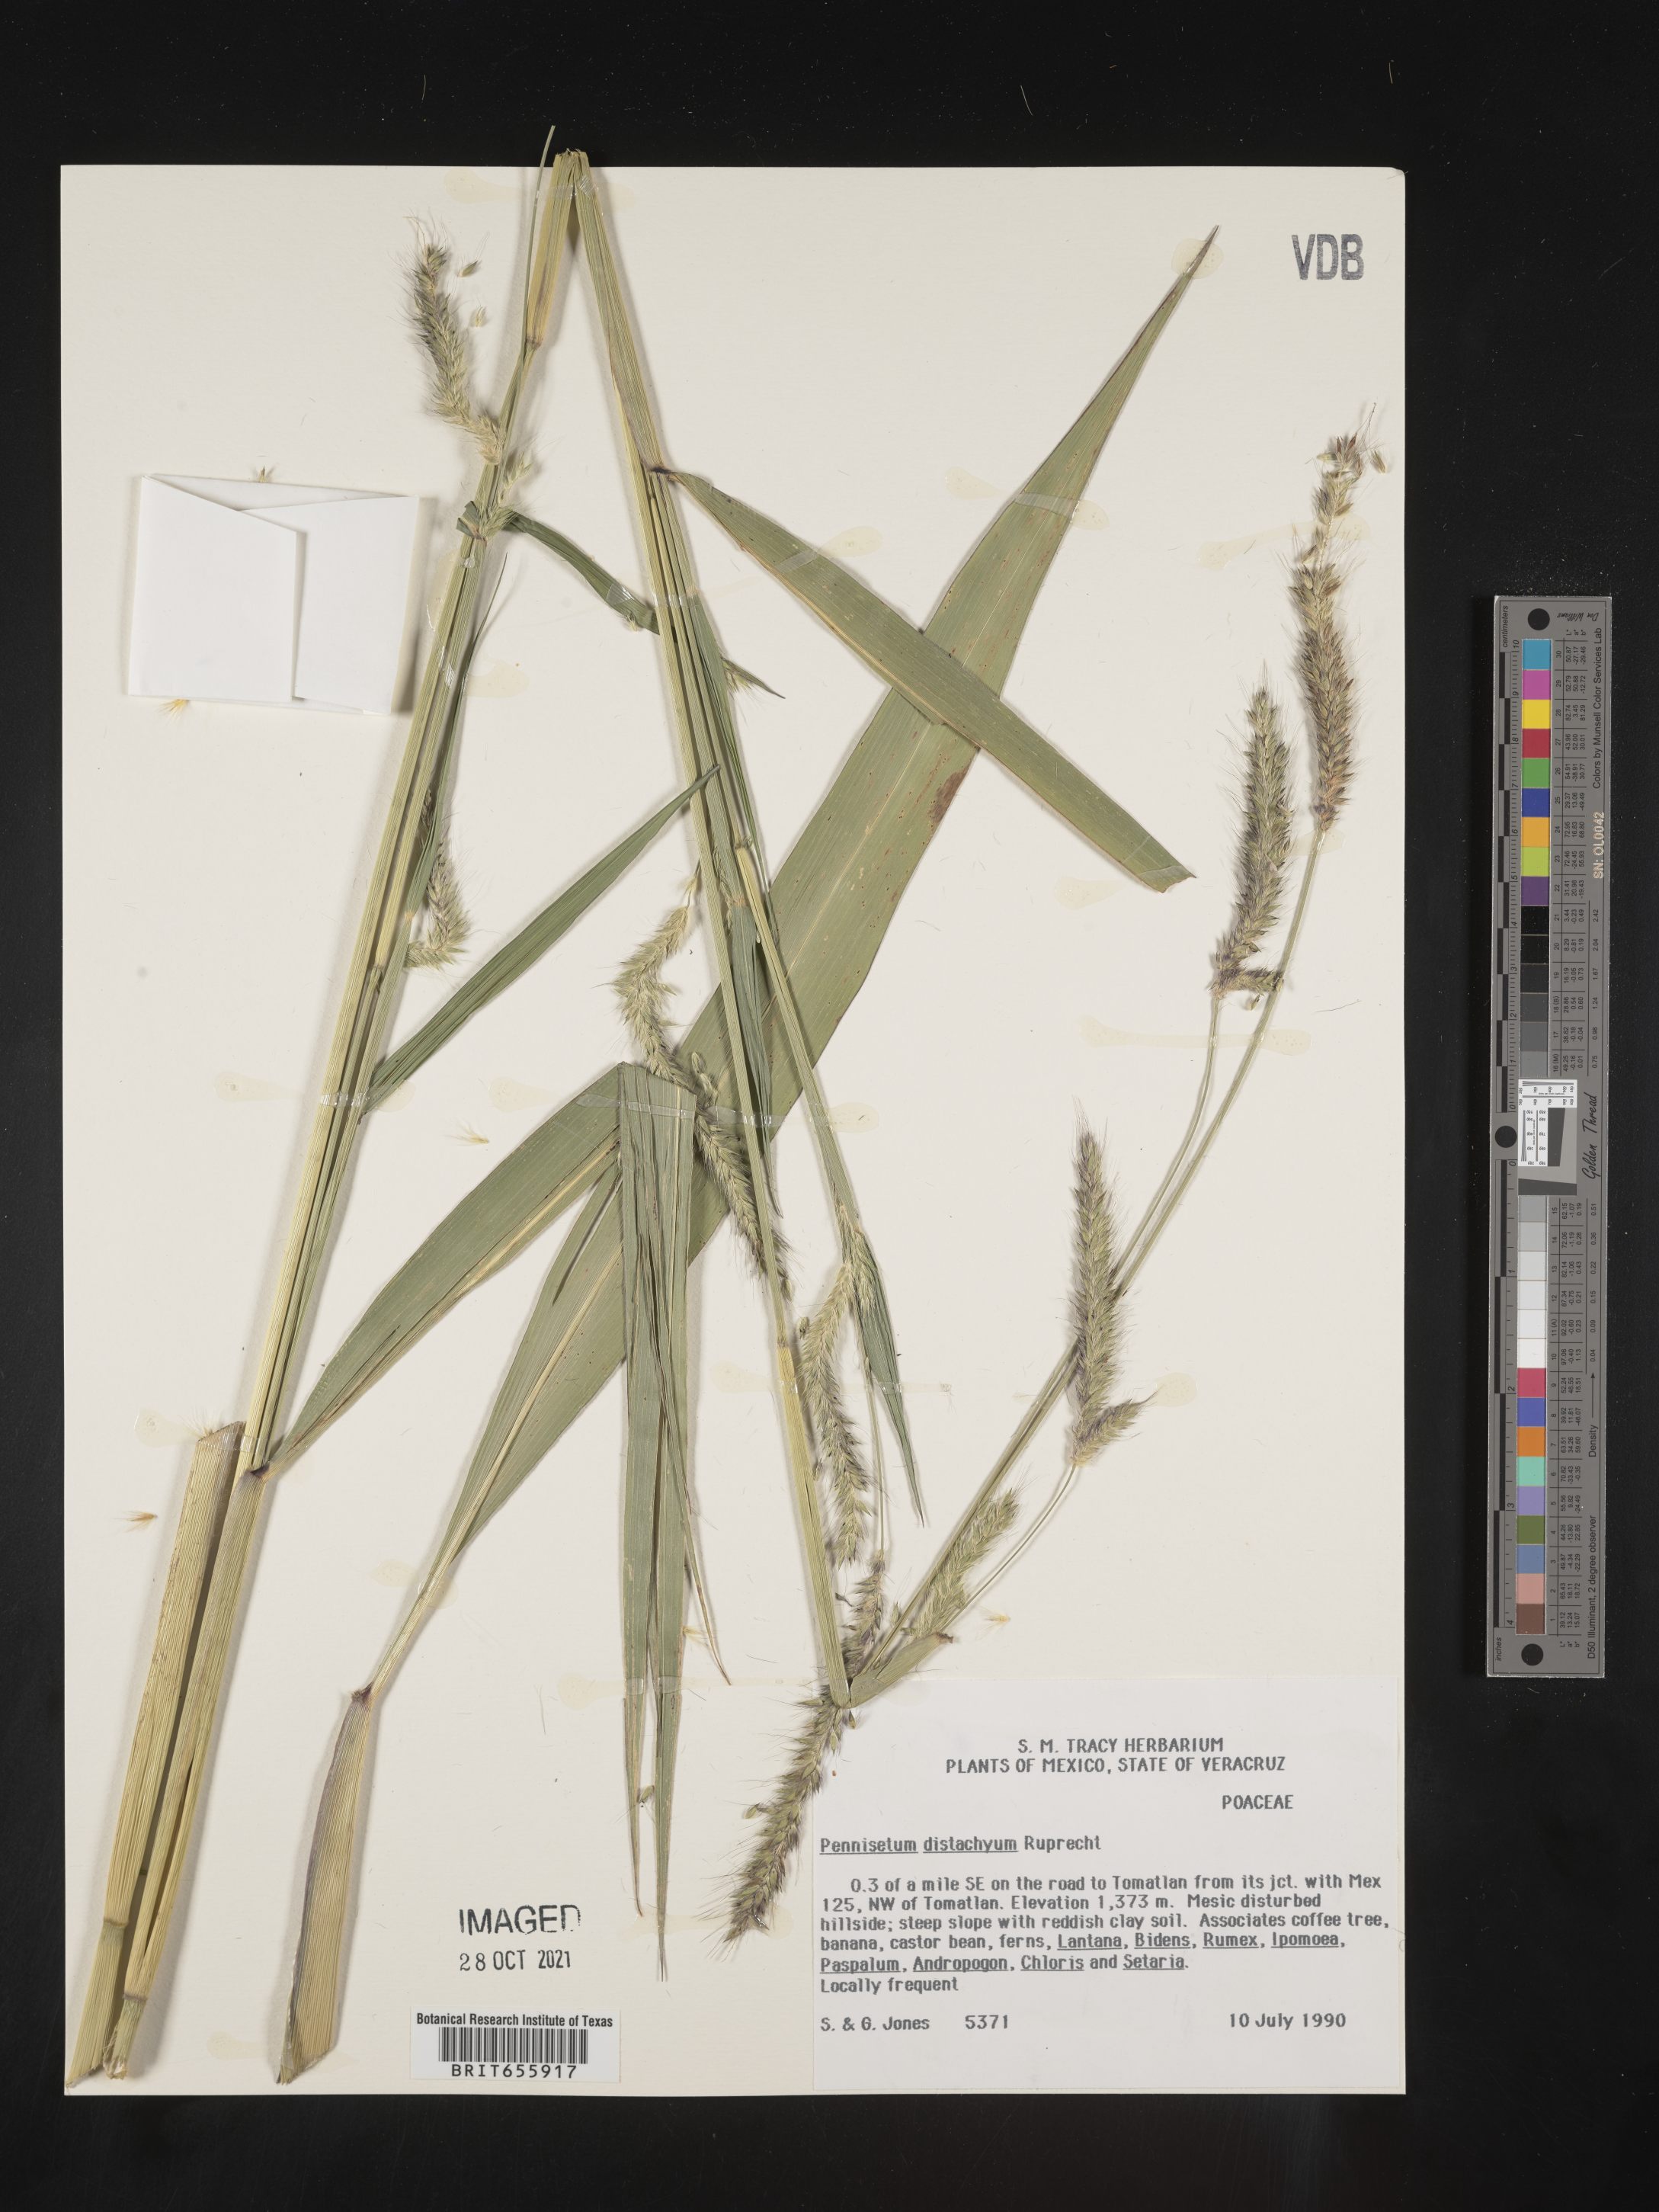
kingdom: Plantae
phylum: Tracheophyta
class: Liliopsida
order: Poales
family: Poaceae
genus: Cenchrus
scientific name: Cenchrus Pennisetum spec
